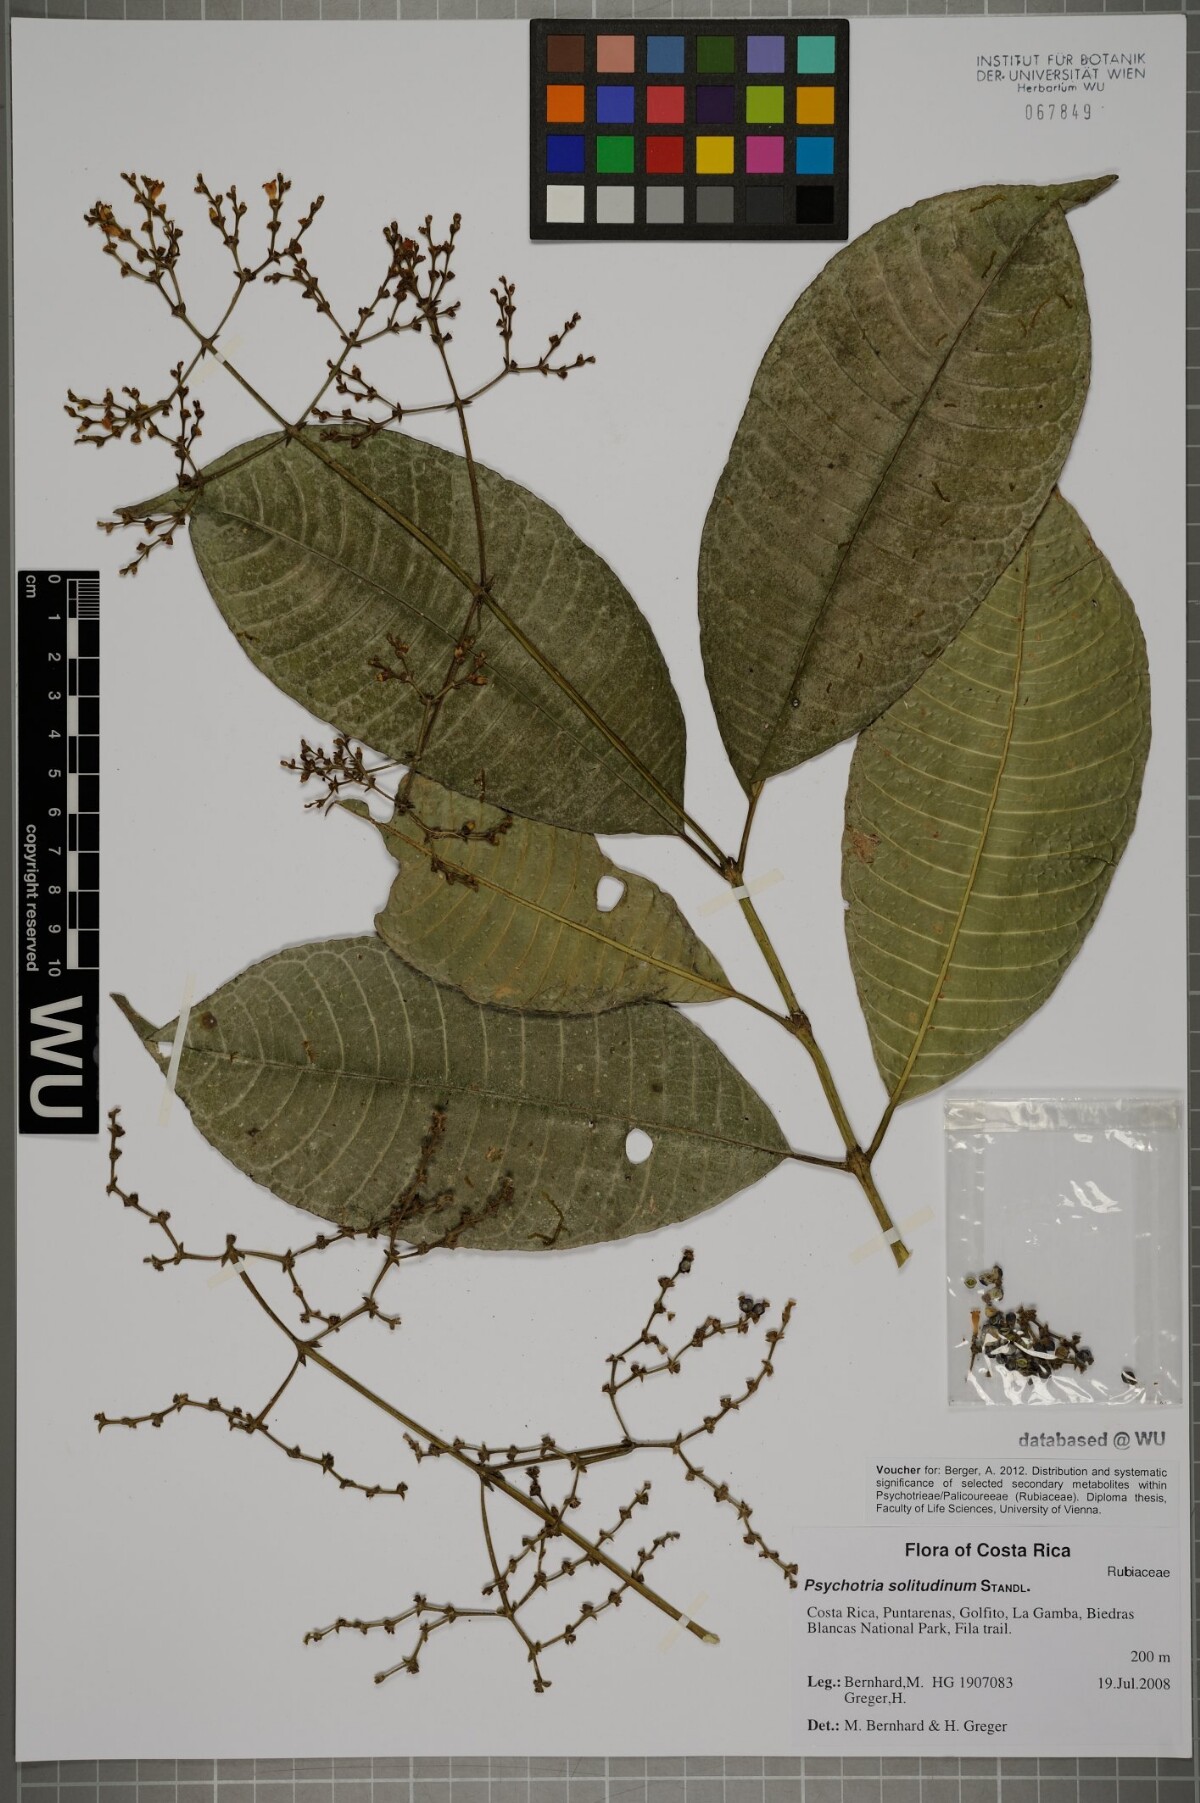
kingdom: Plantae
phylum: Tracheophyta
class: Magnoliopsida
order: Gentianales
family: Rubiaceae
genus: Palicourea
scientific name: Palicourea solitudinum
